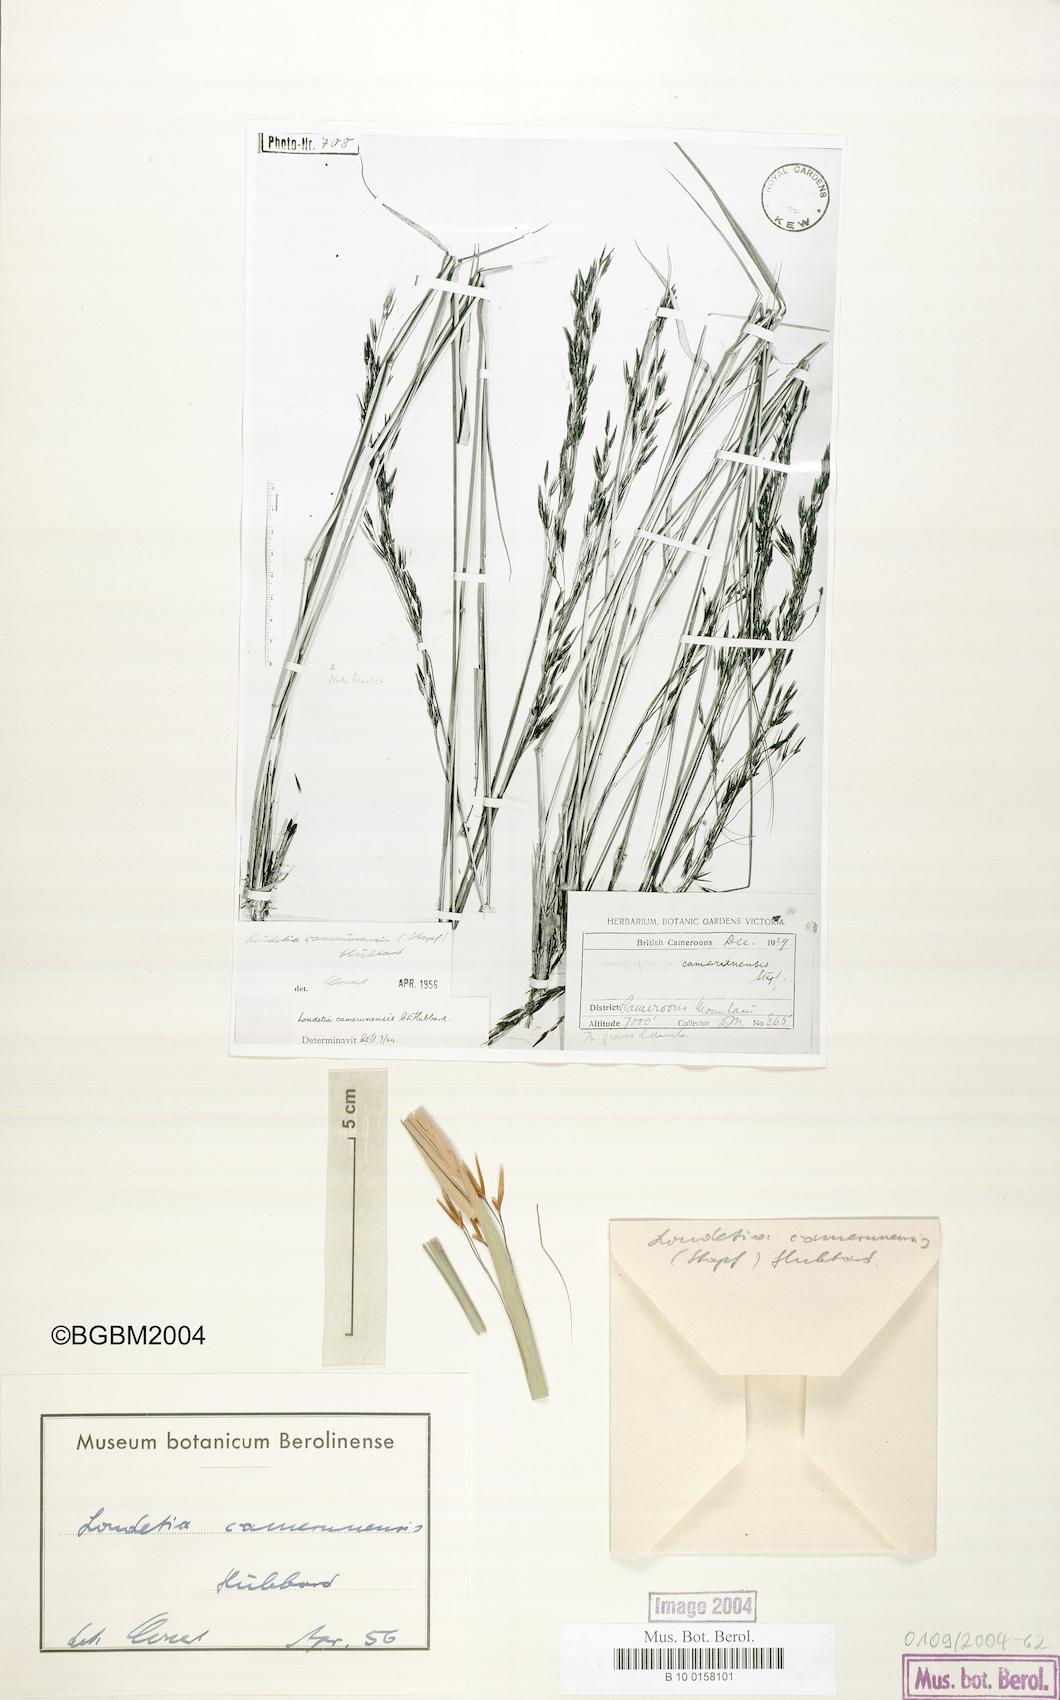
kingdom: Plantae
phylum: Tracheophyta
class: Liliopsida
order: Poales
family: Poaceae
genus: Loudetia
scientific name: Loudetia simplex
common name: Common russet grass
